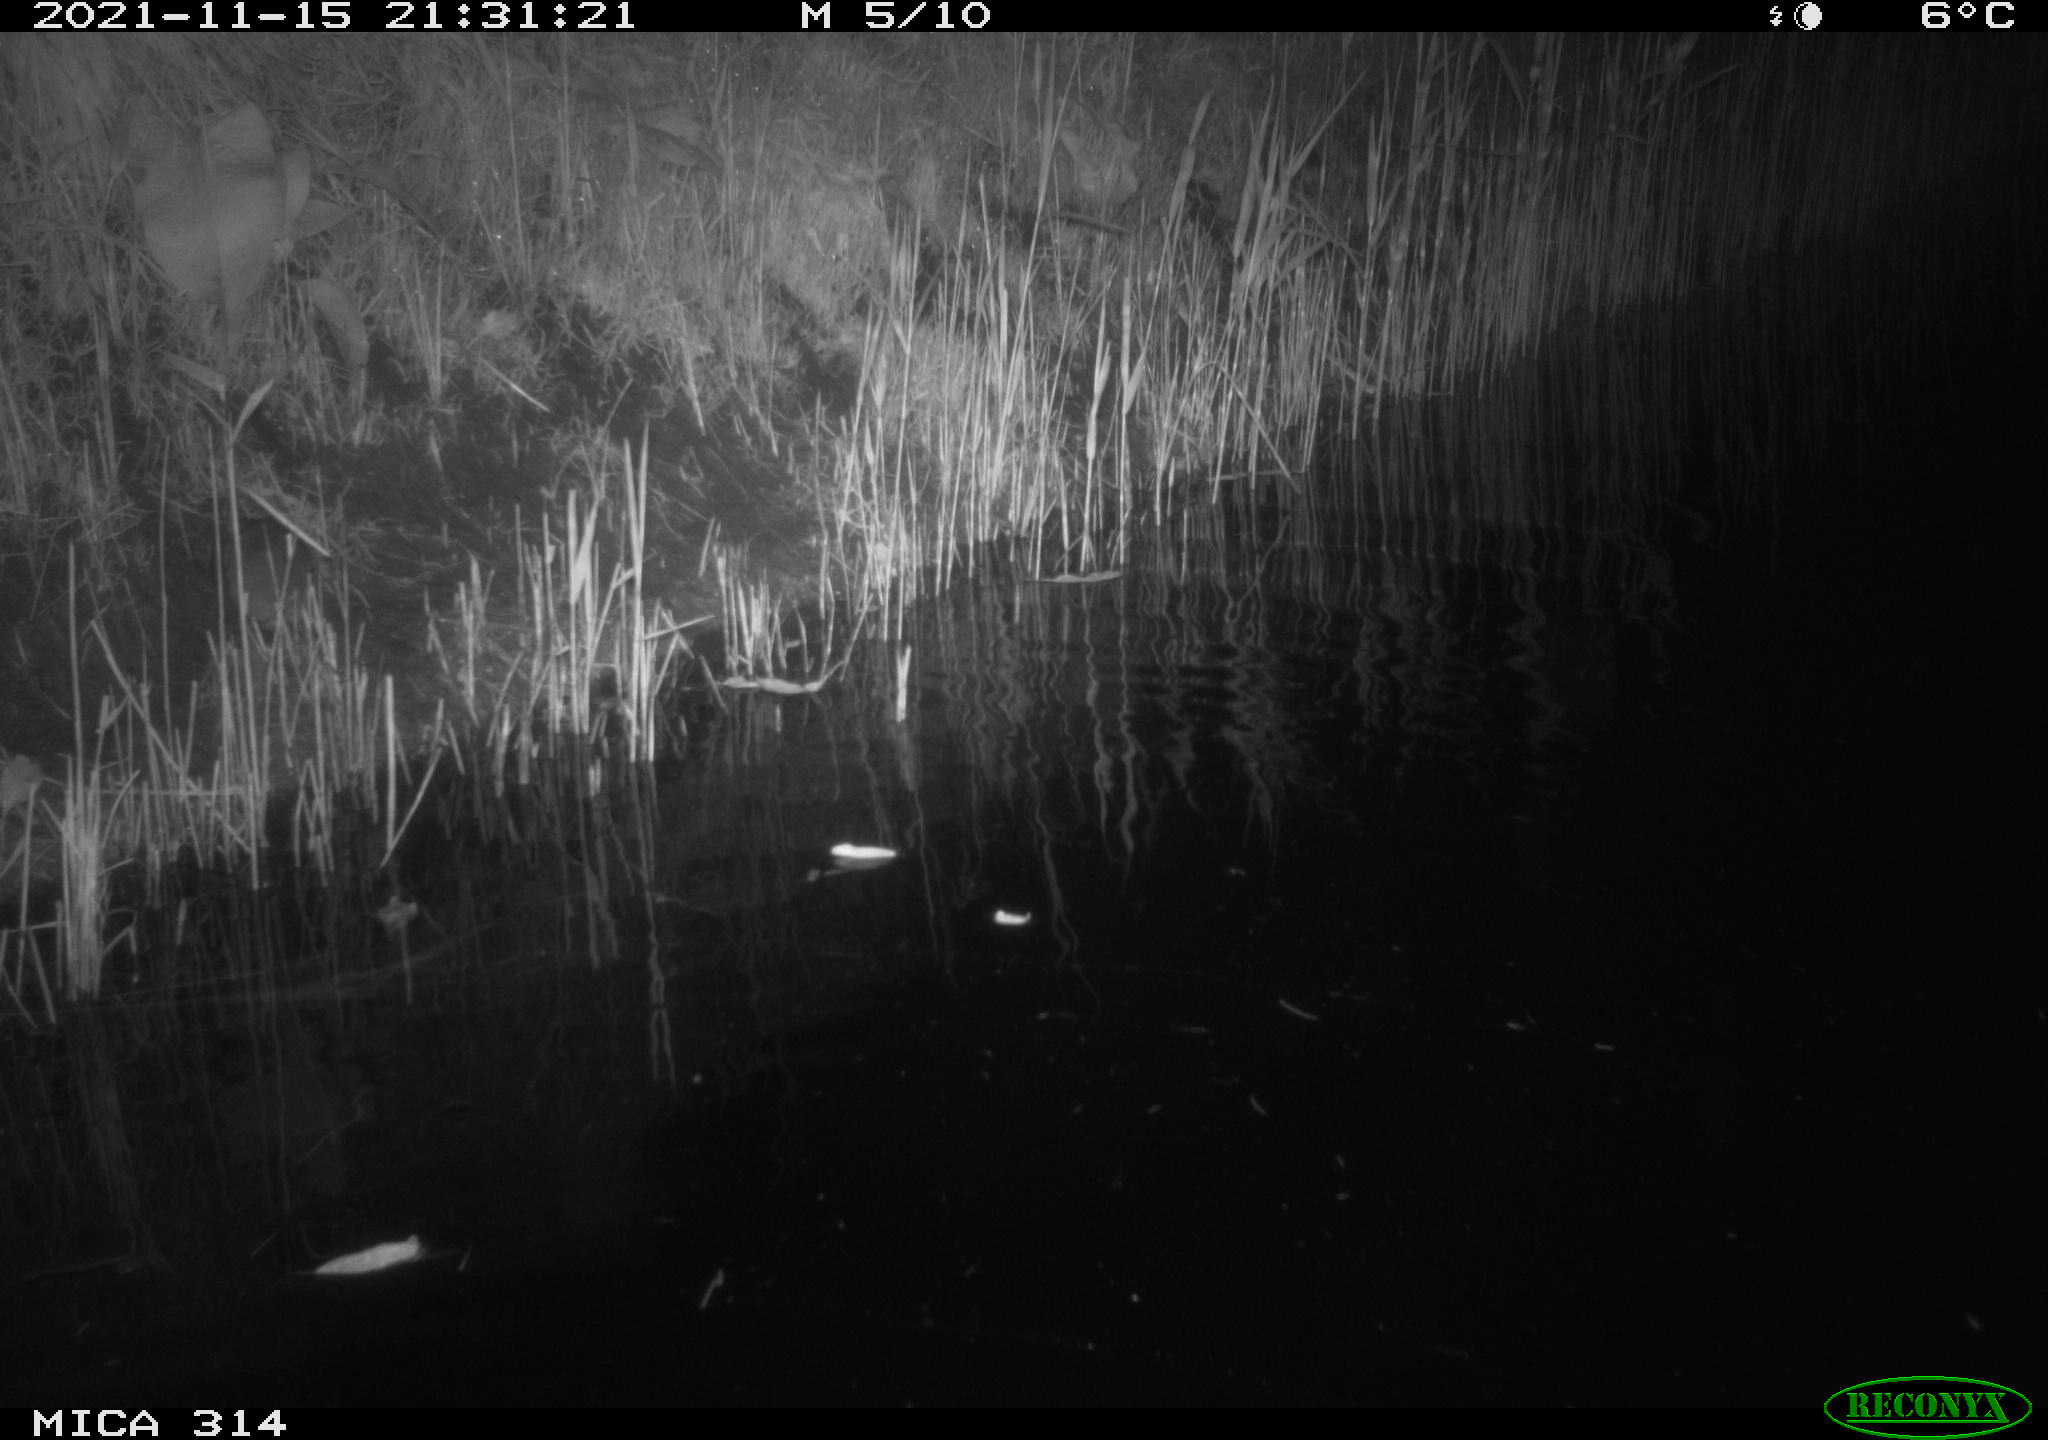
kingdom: Animalia
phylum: Chordata
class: Mammalia
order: Rodentia
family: Muridae
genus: Rattus
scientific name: Rattus norvegicus
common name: Brown rat
